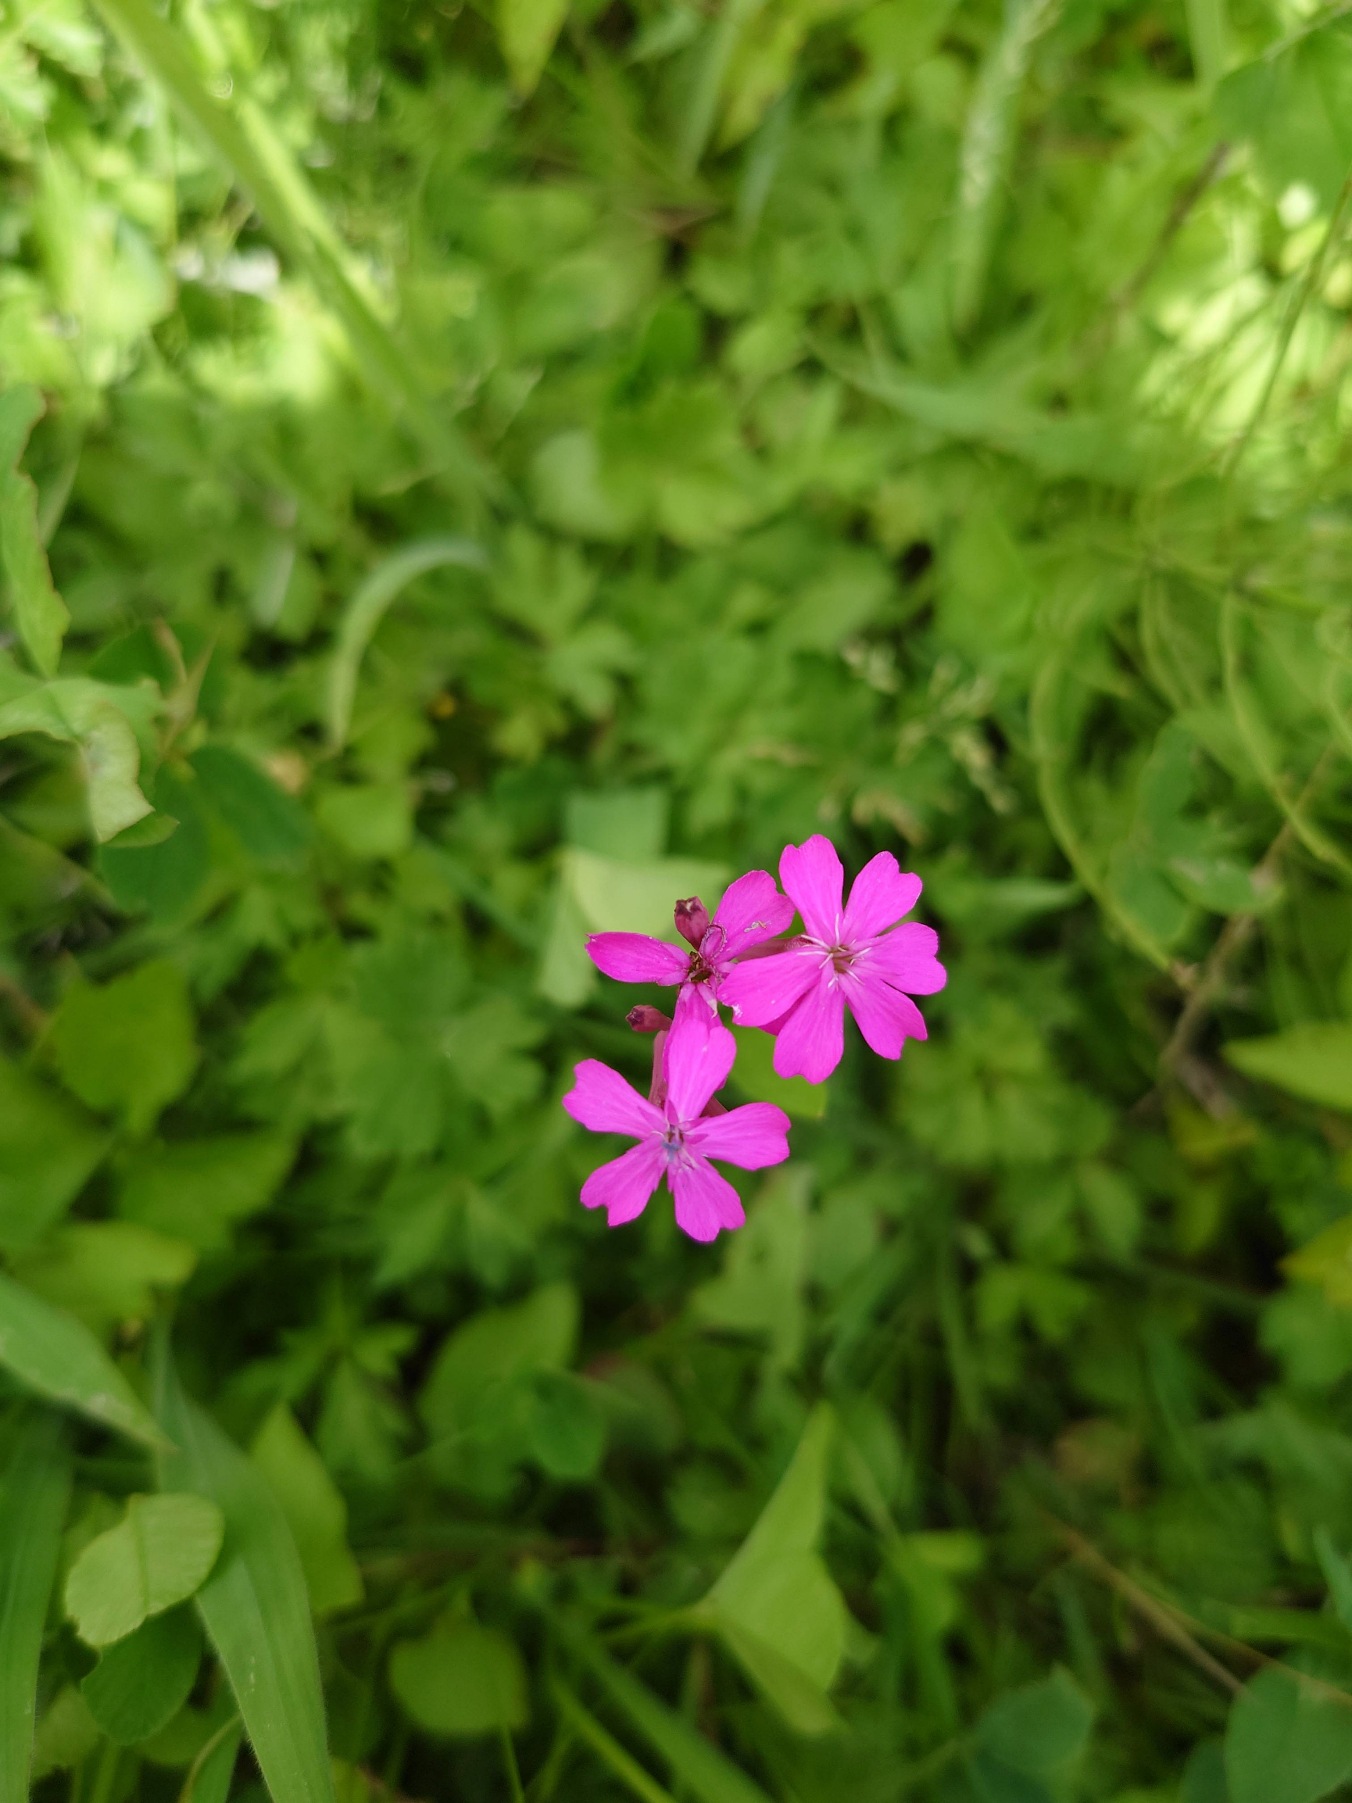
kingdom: Plantae
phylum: Tracheophyta
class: Magnoliopsida
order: Caryophyllales
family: Caryophyllaceae
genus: Silene
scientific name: Silene dioica
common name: Dagpragtstjerne
